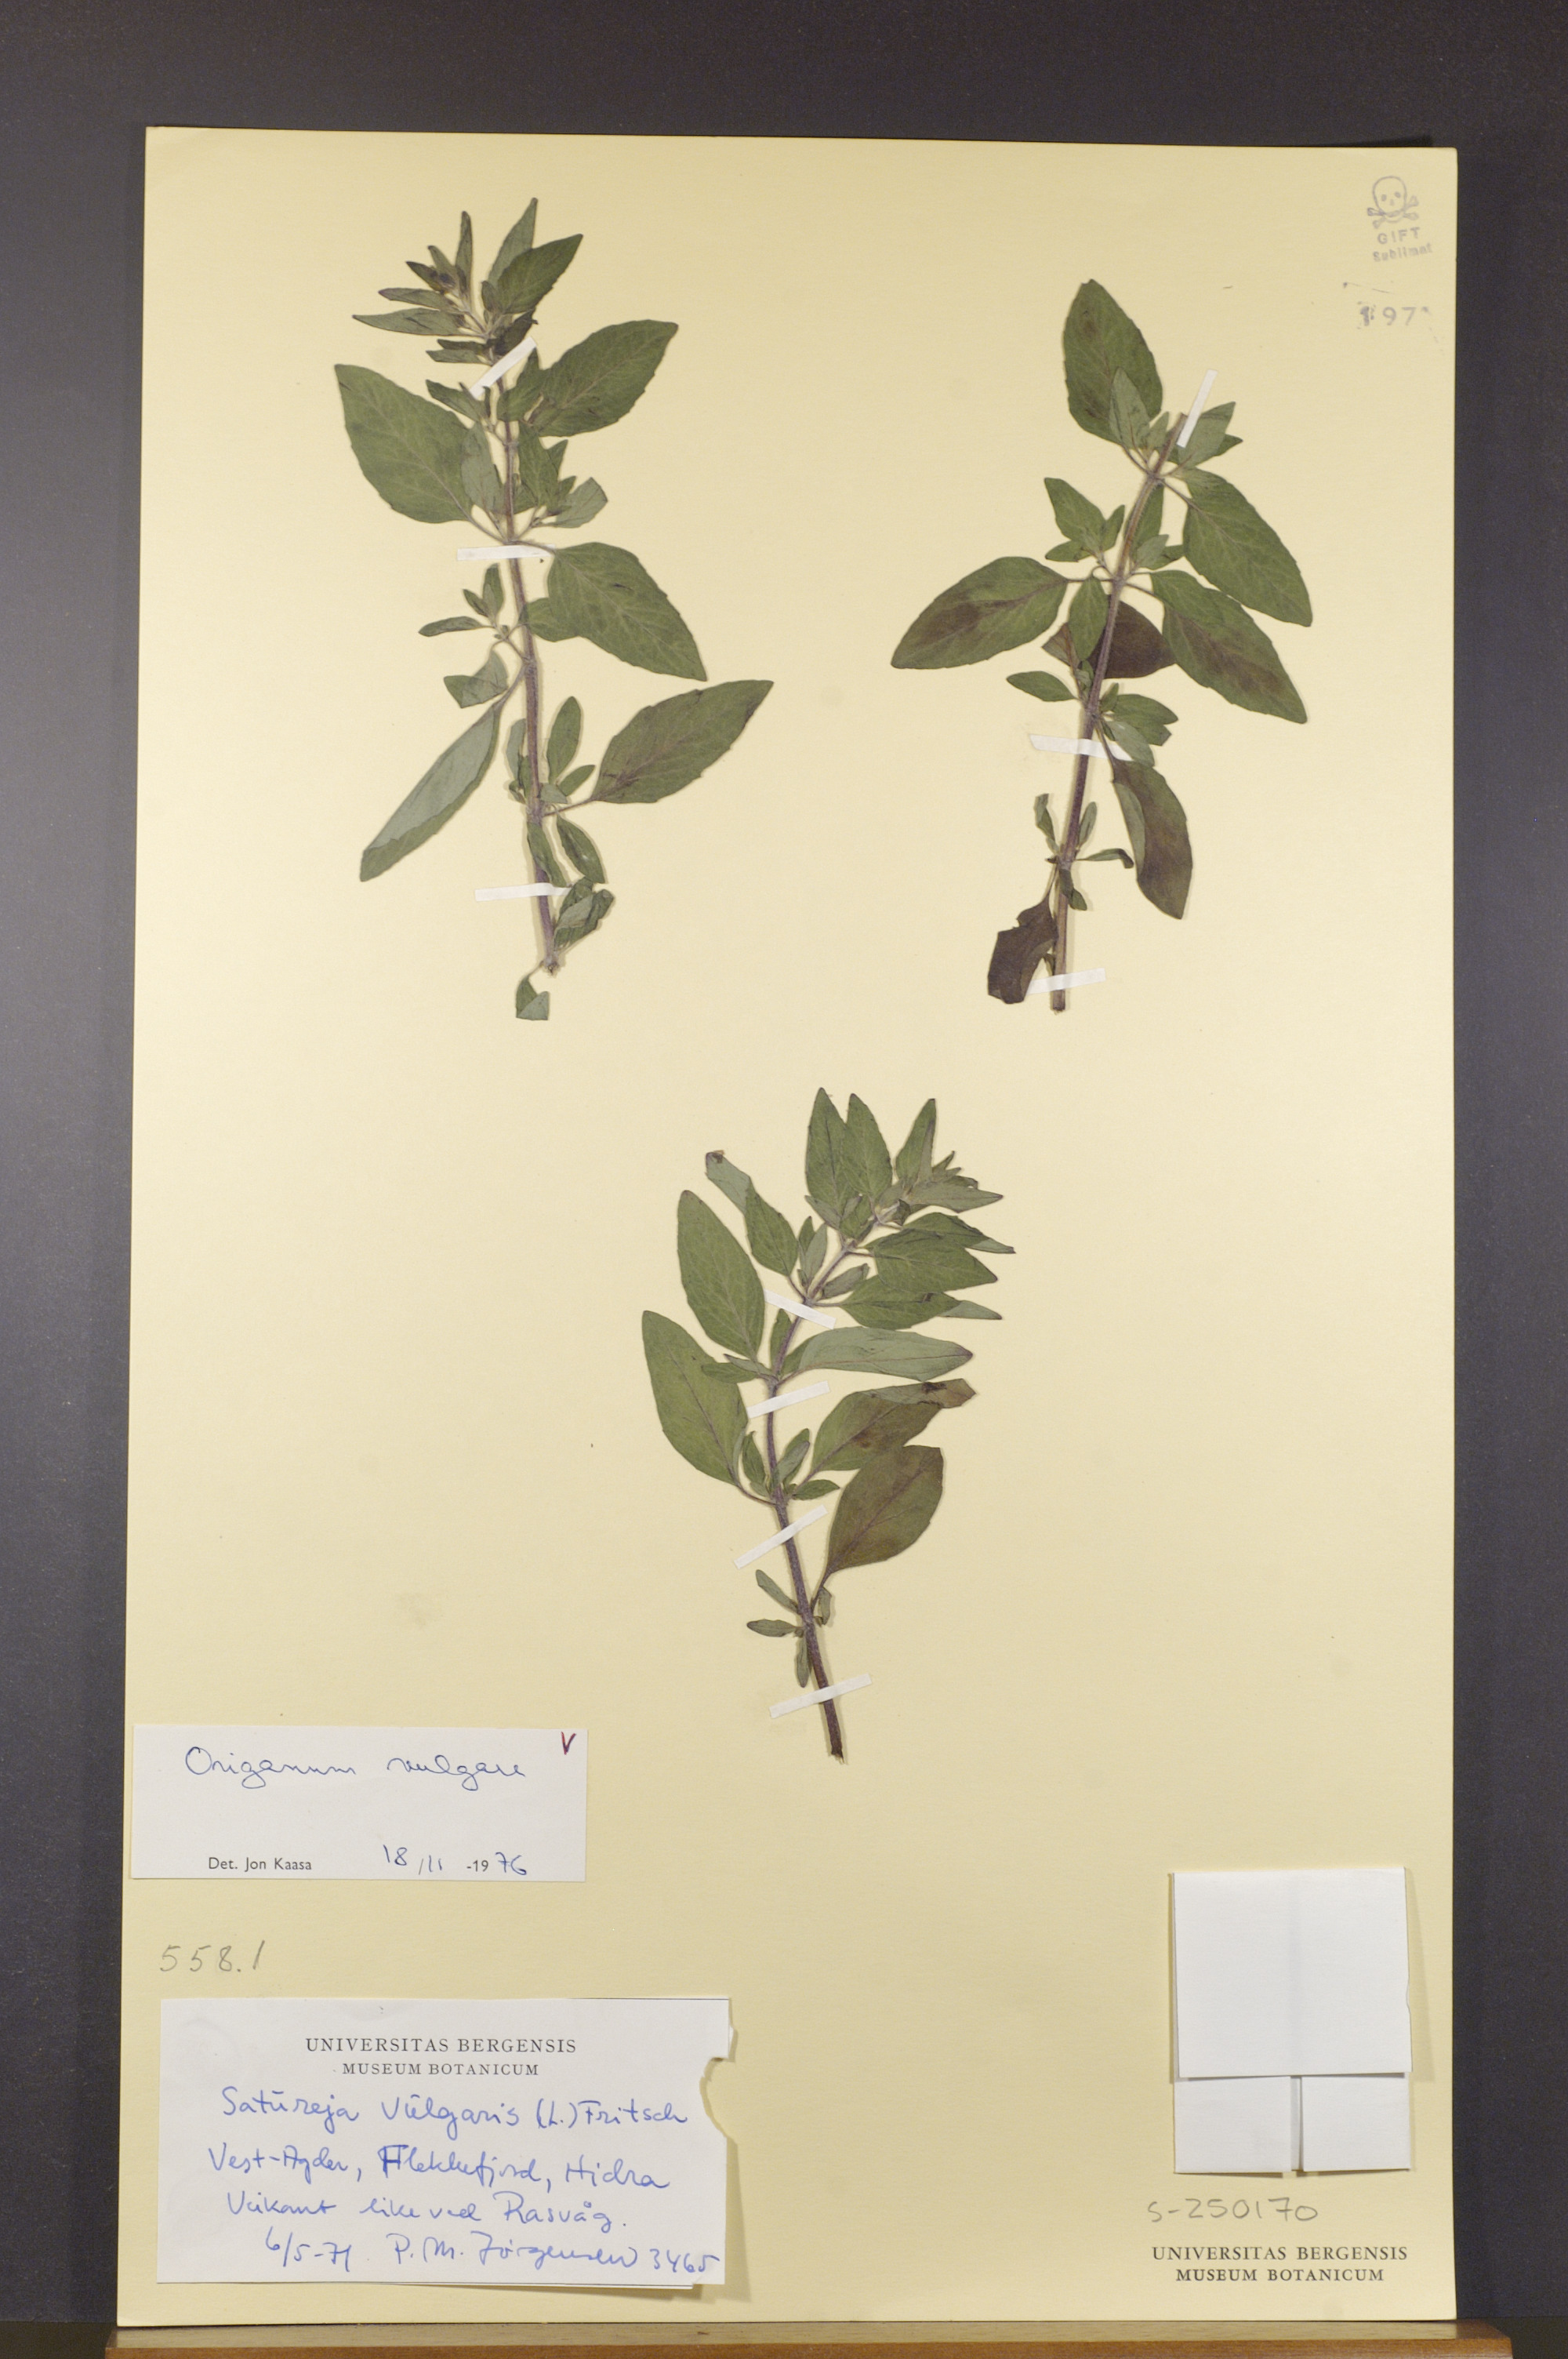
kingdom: Plantae
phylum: Tracheophyta
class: Magnoliopsida
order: Lamiales
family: Lamiaceae
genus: Origanum
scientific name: Origanum vulgare
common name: Wild marjoram
